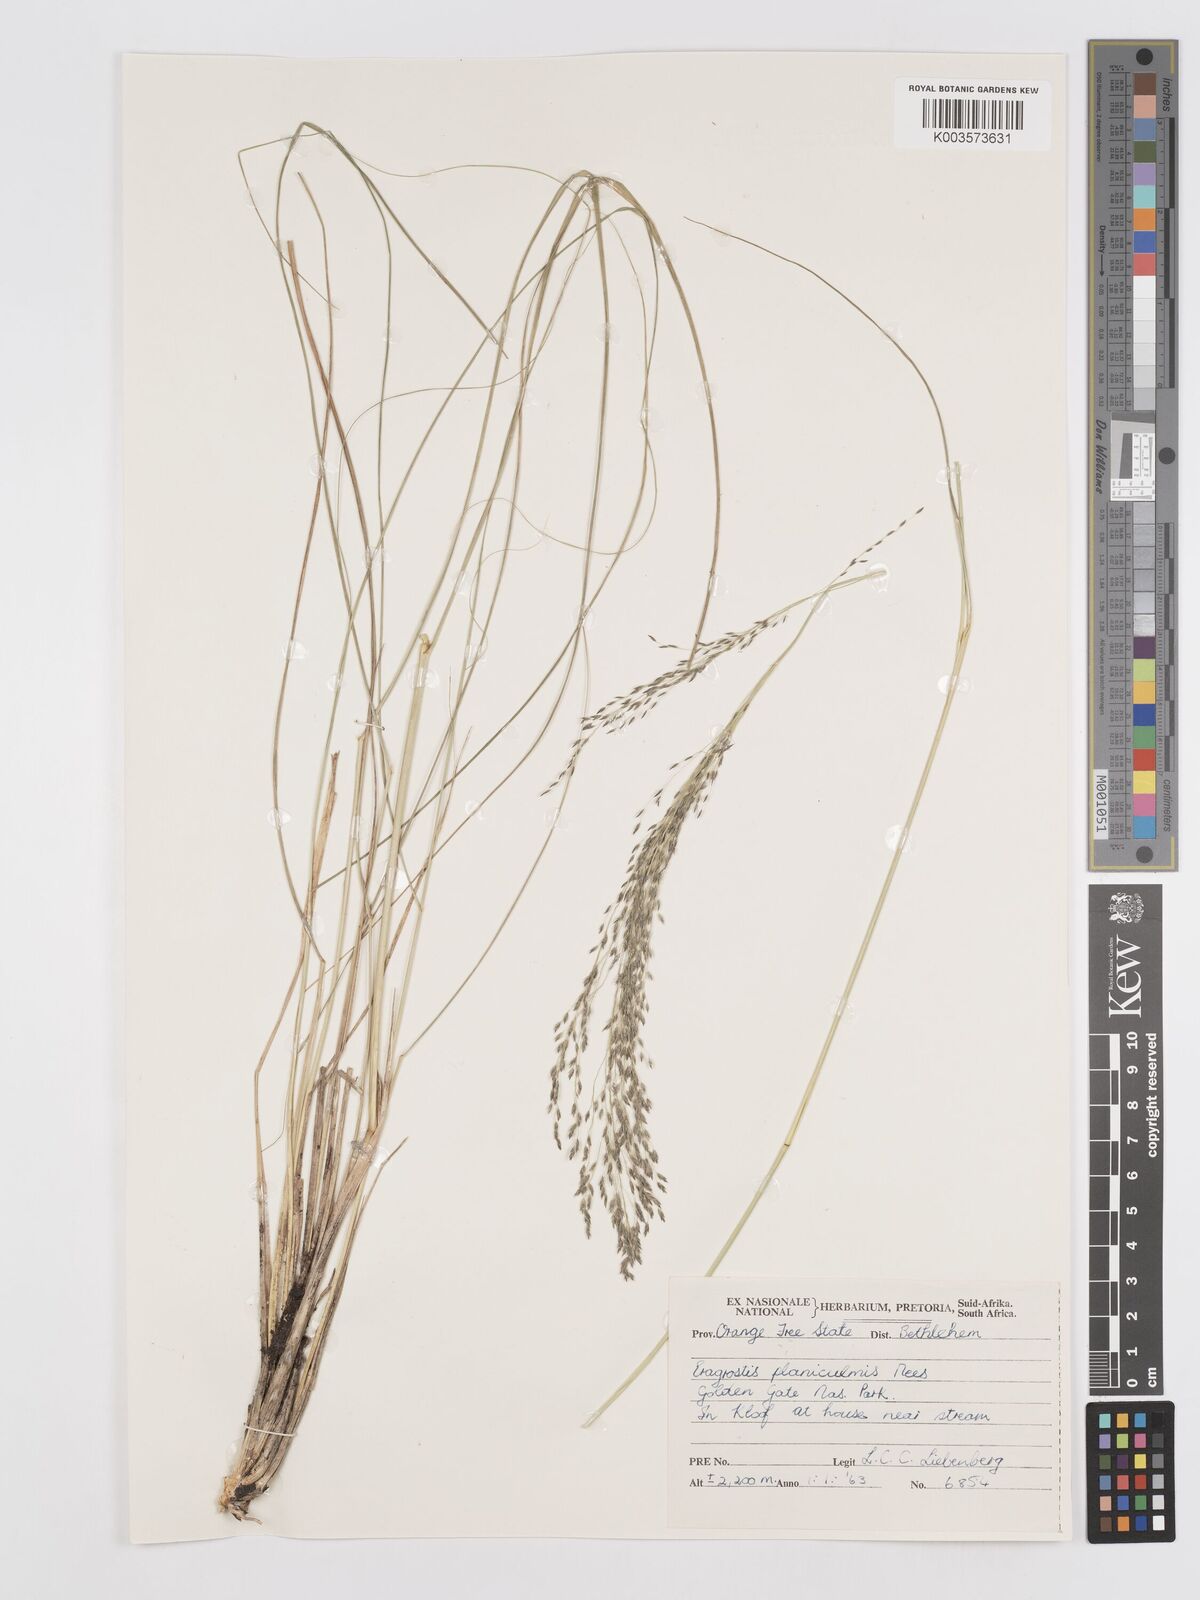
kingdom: Plantae
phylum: Tracheophyta
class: Liliopsida
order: Poales
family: Poaceae
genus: Eragrostis
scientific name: Eragrostis planiculmis
